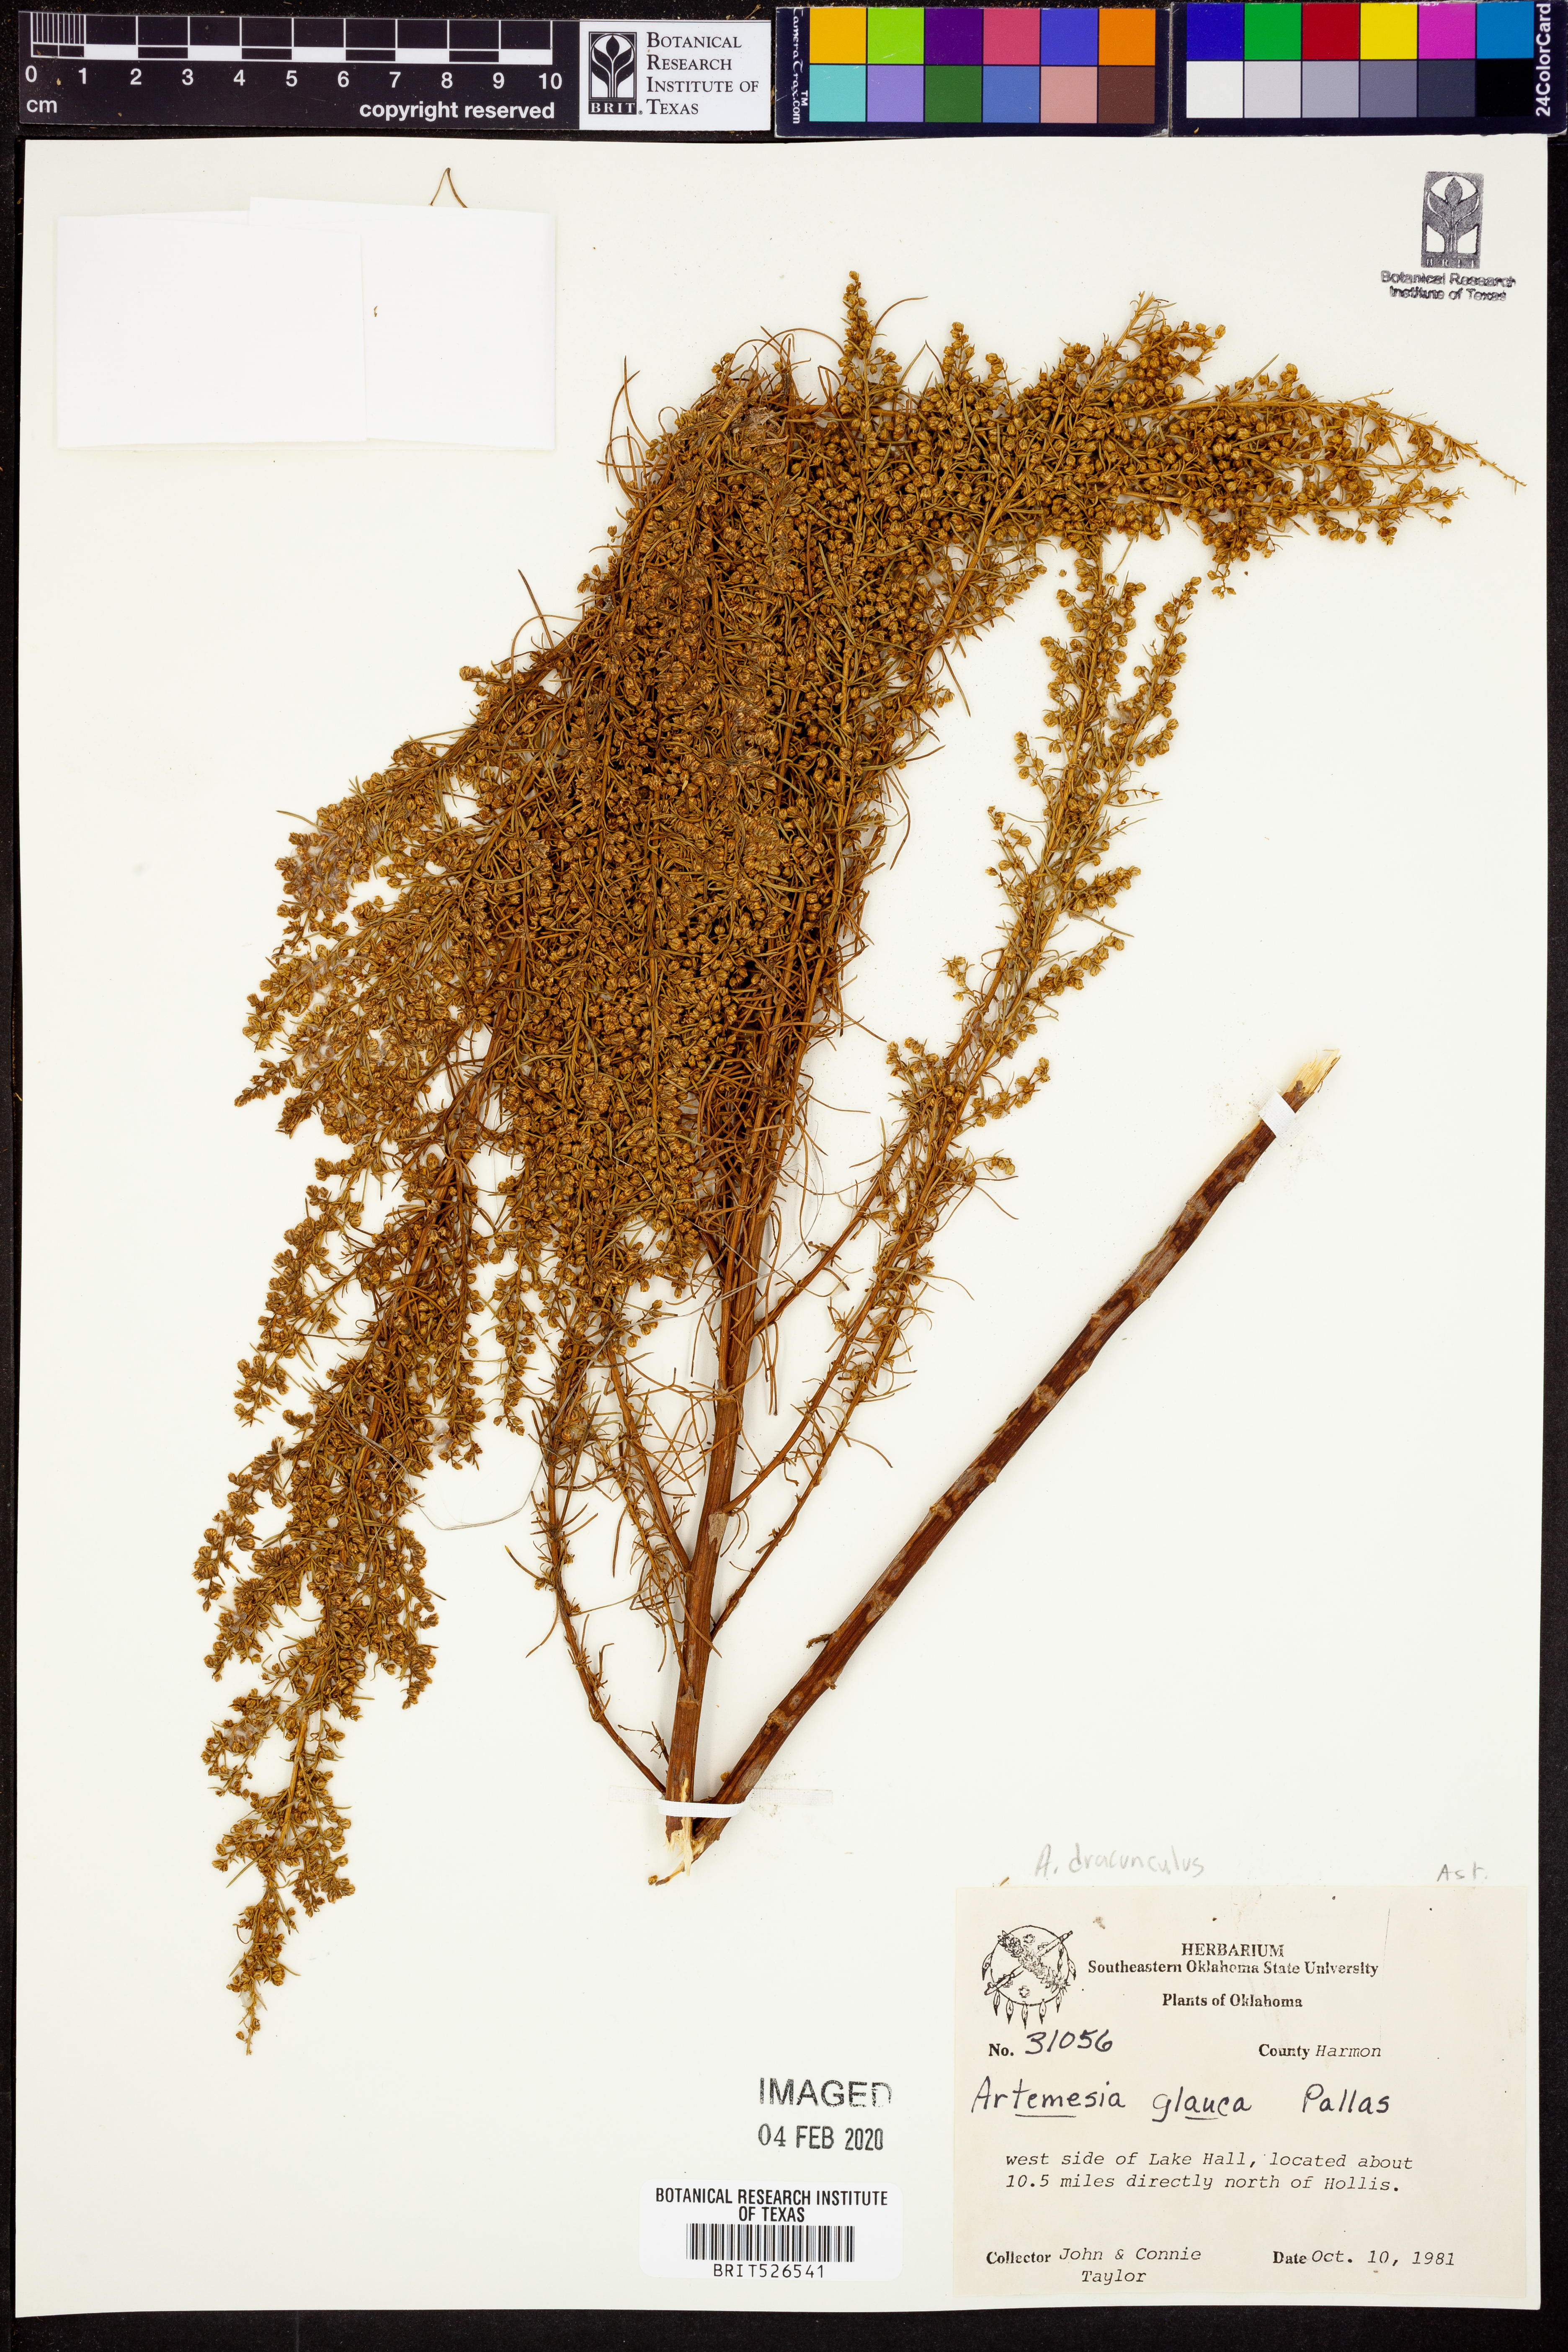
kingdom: Plantae
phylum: Tracheophyta
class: Magnoliopsida
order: Asterales
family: Asteraceae
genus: Artemisia
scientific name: Artemisia dracunculus
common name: Tarragon
